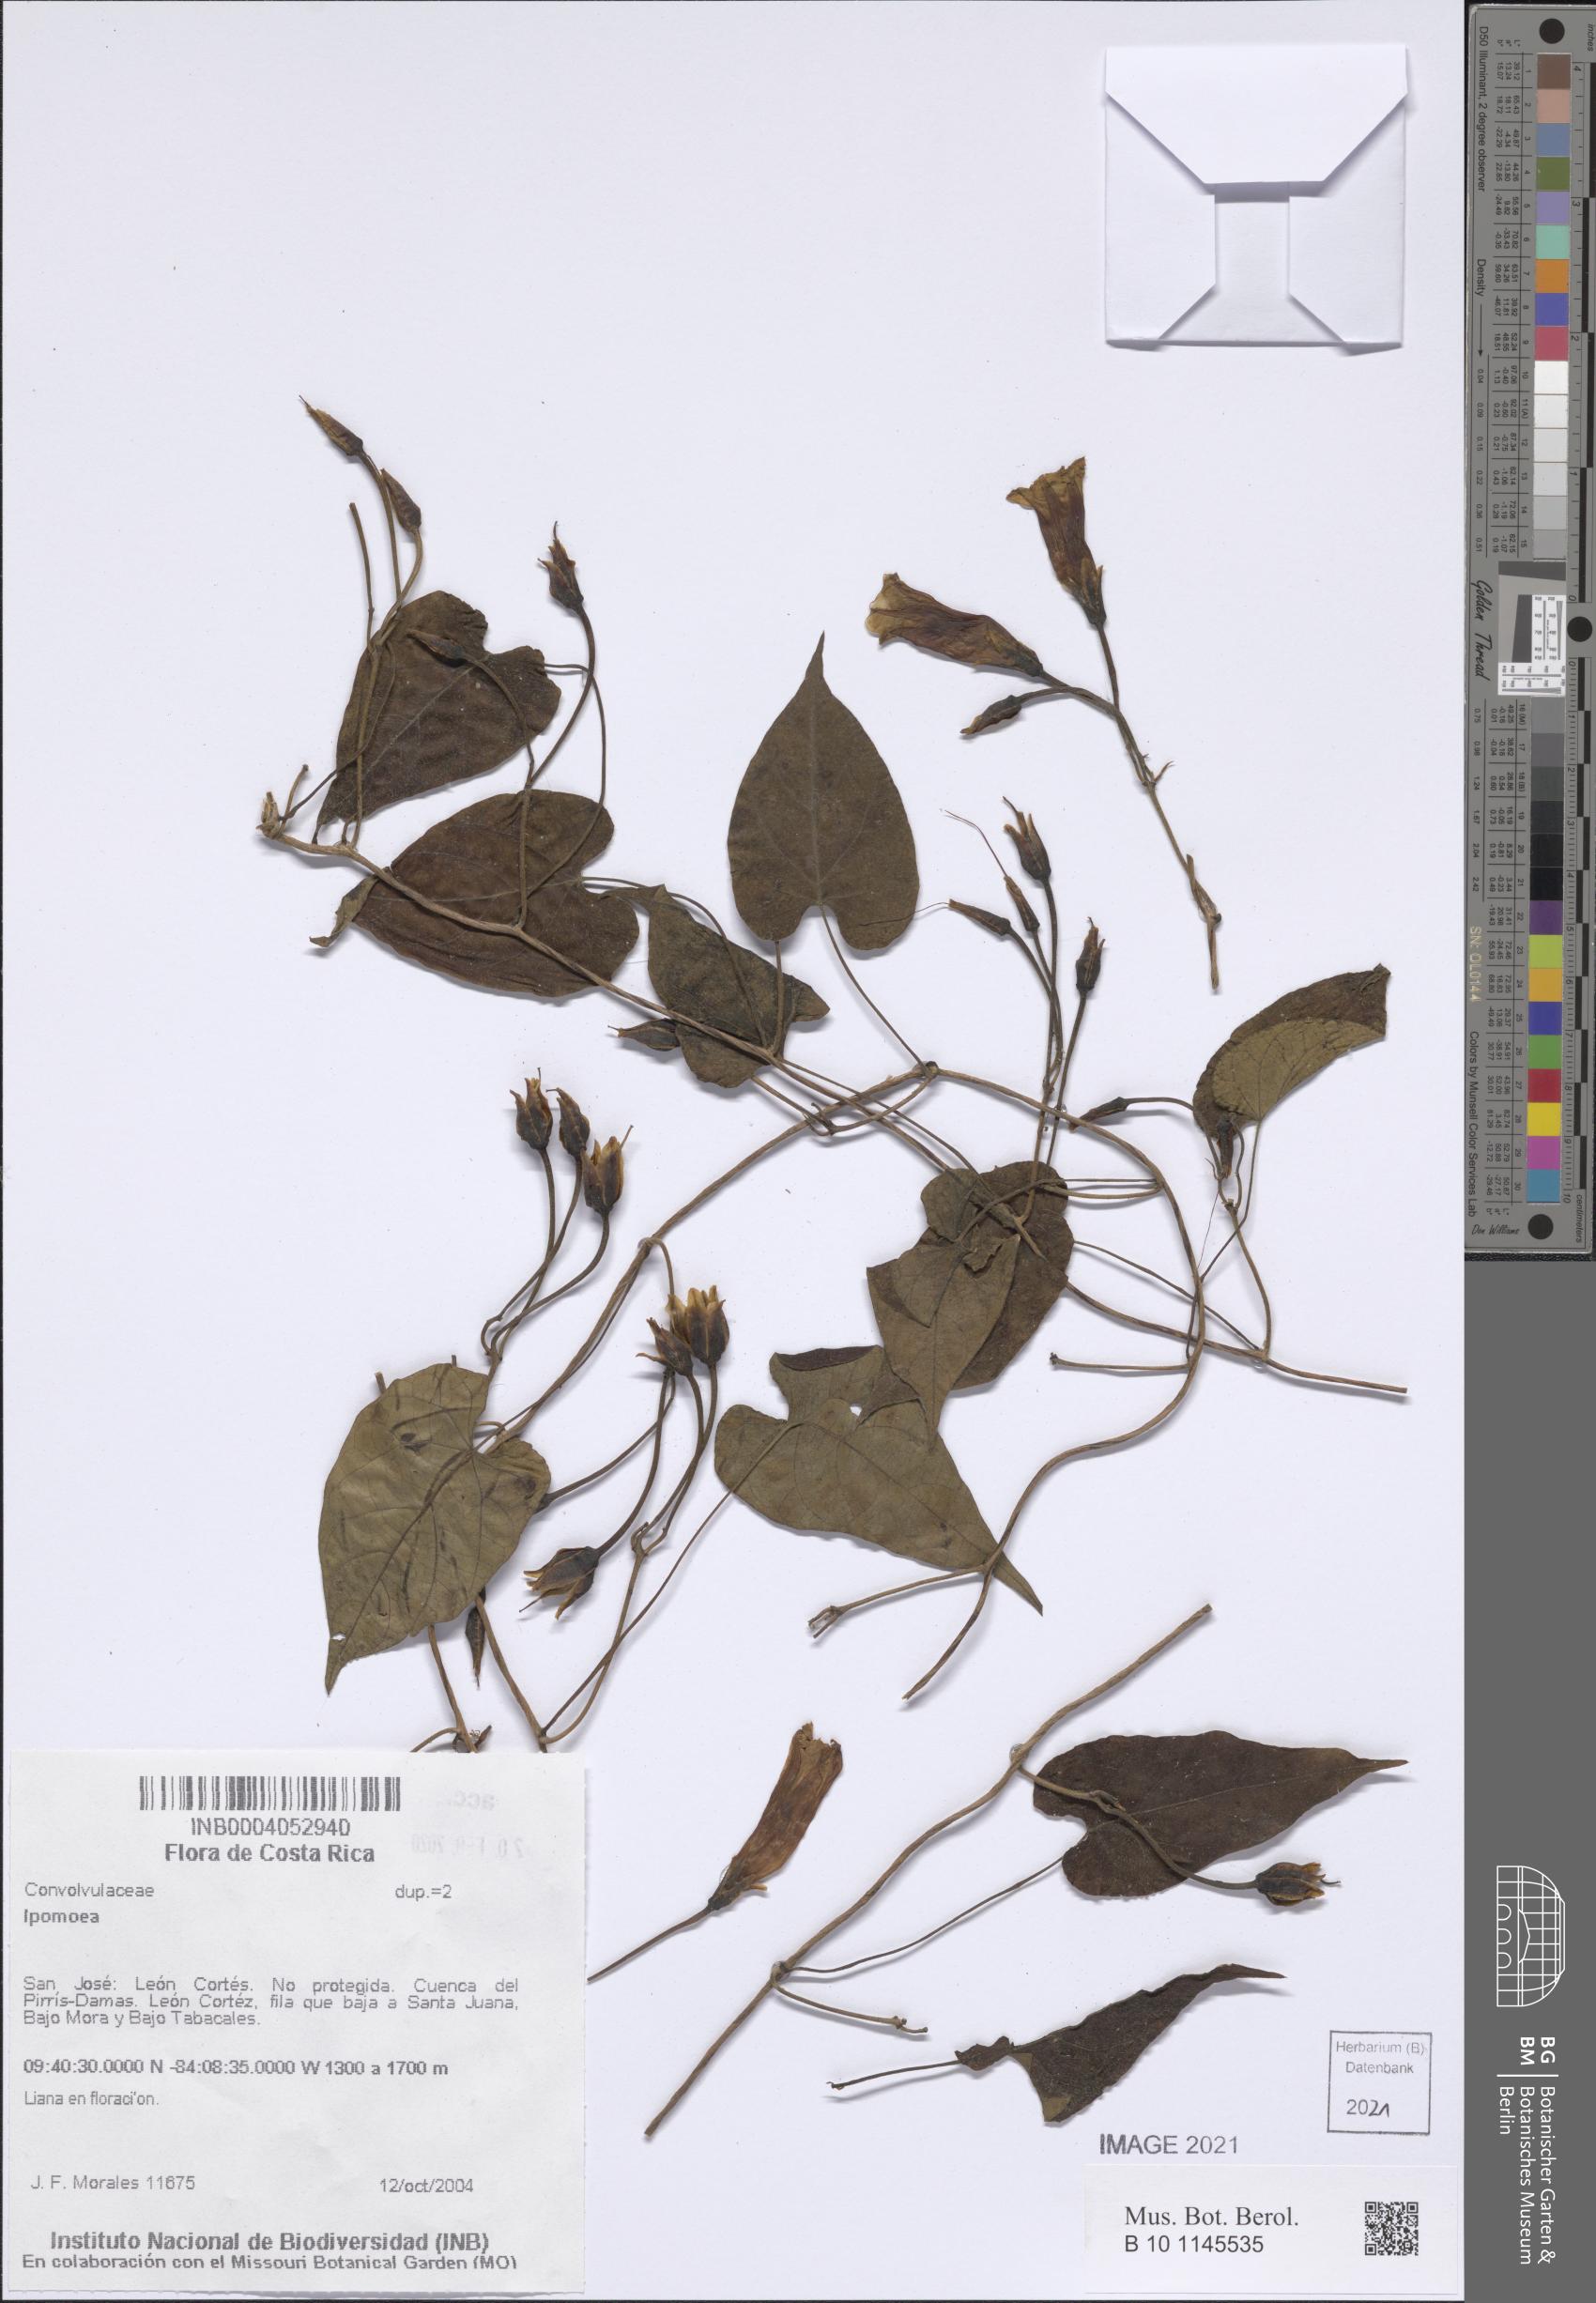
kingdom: Plantae
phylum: Tracheophyta
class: Magnoliopsida
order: Solanales
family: Convolvulaceae
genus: Ipomoea
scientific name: Ipomoea
